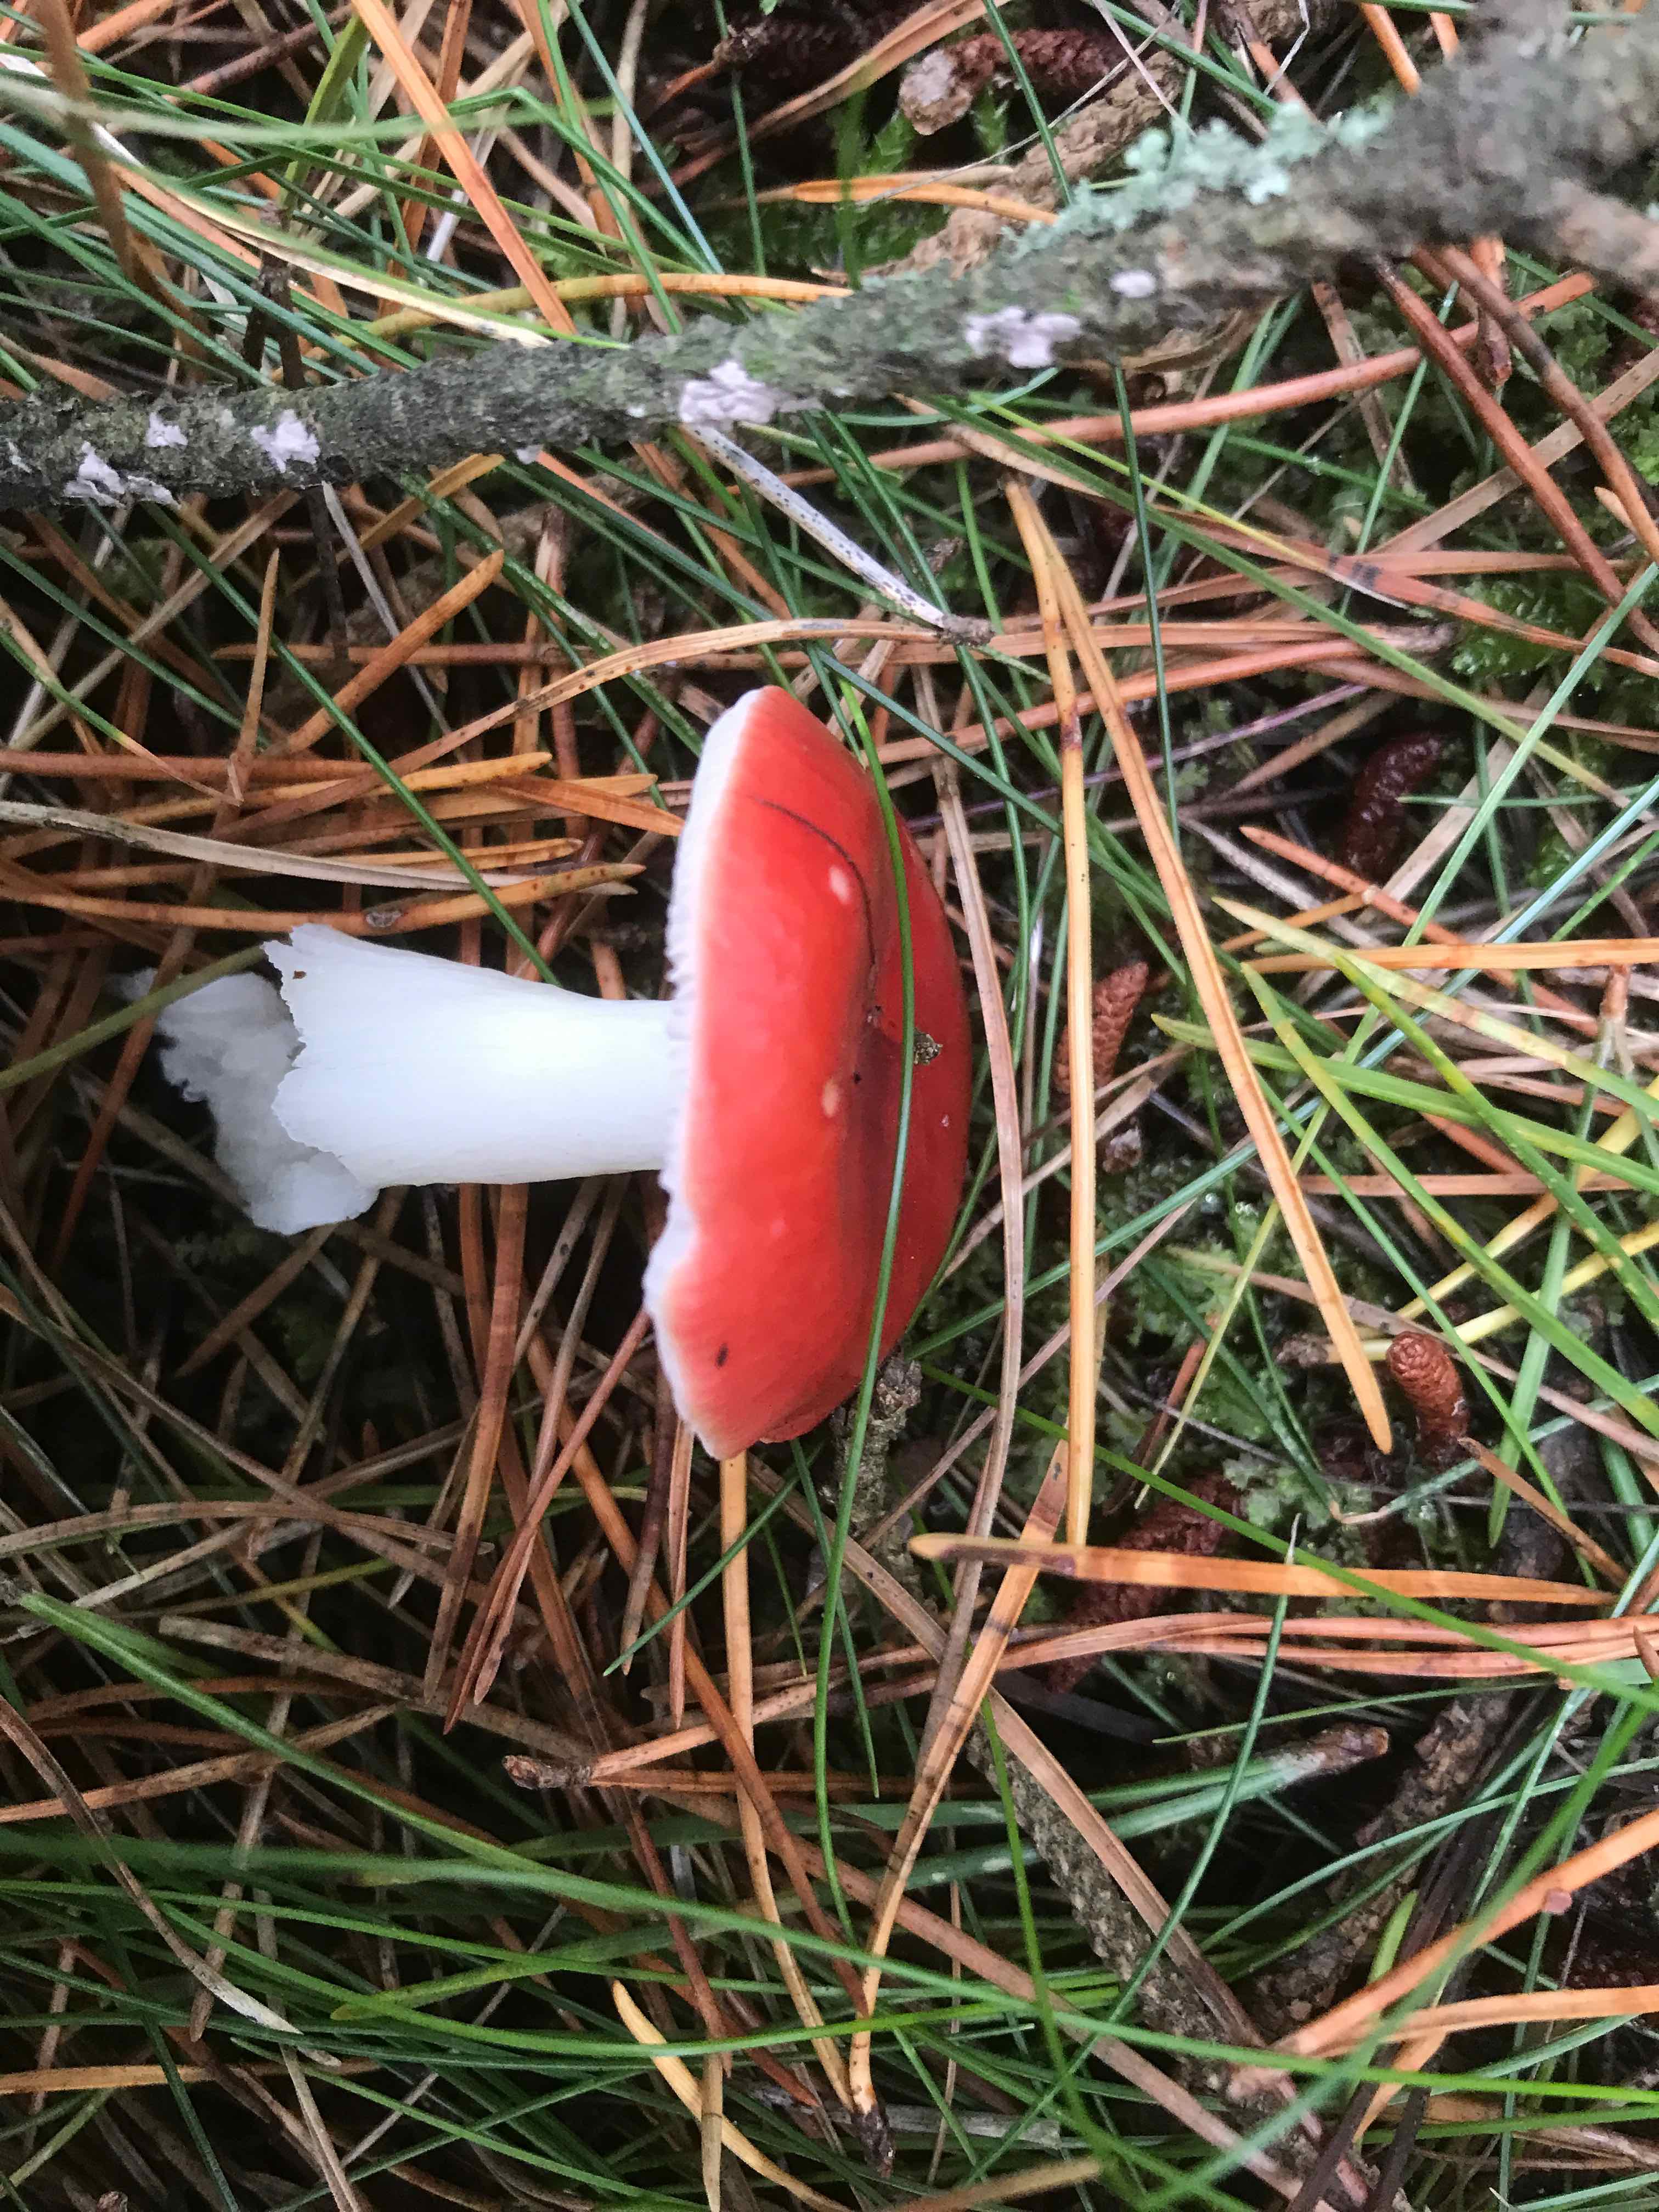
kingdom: Fungi
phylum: Basidiomycota
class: Agaricomycetes
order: Russulales
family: Russulaceae
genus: Russula
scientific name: Russula emetica
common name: stor gift-skørhat
